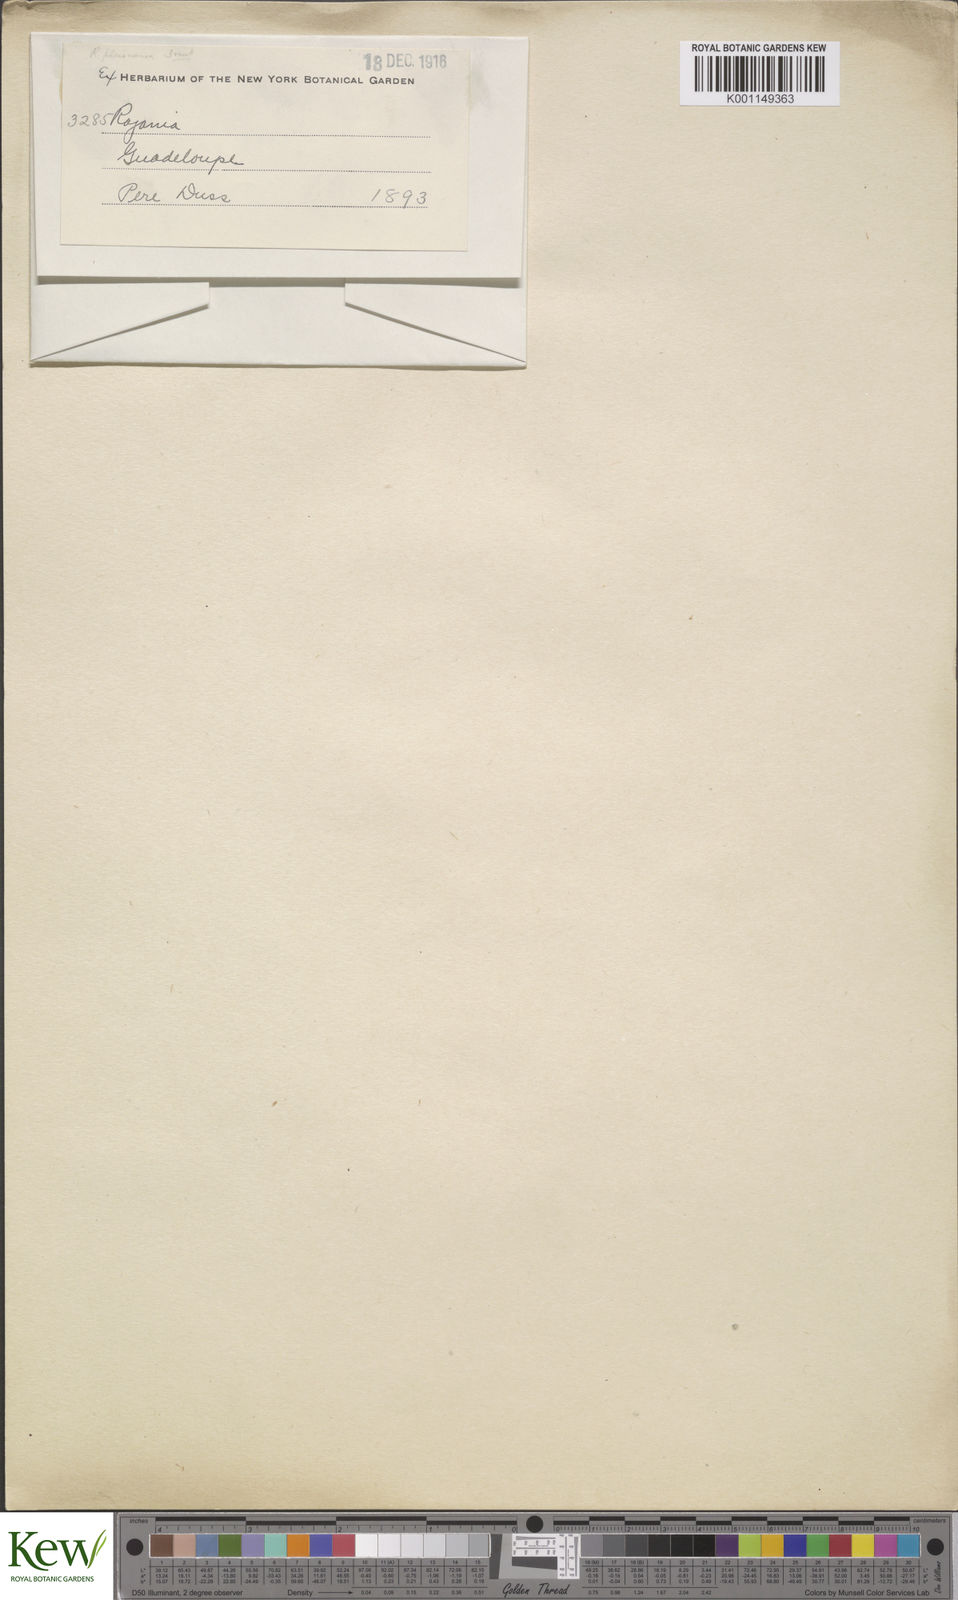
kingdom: Plantae
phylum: Tracheophyta
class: Liliopsida
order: Dioscoreales
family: Dioscoreaceae
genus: Dioscorea
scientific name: Dioscorea
